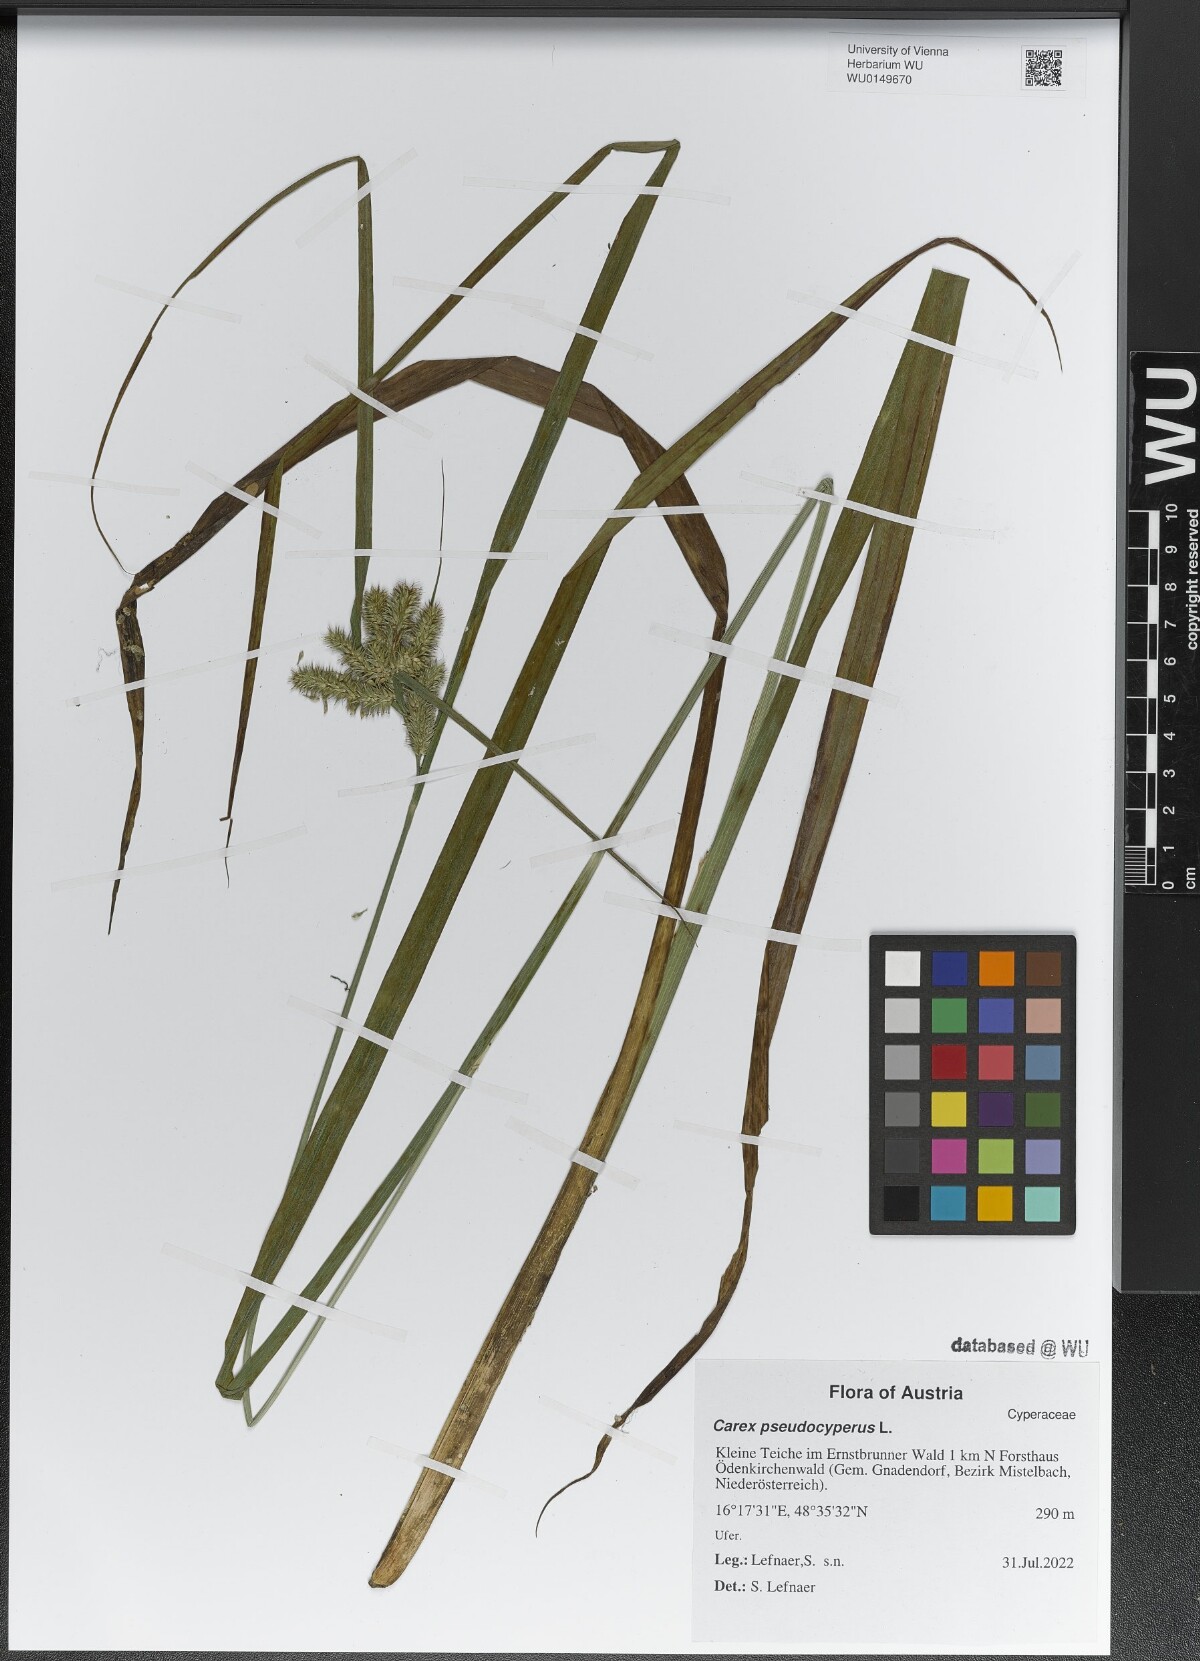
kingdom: Plantae
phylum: Tracheophyta
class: Liliopsida
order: Poales
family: Cyperaceae
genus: Carex
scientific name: Carex pseudocyperus
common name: Cyperus sedge
